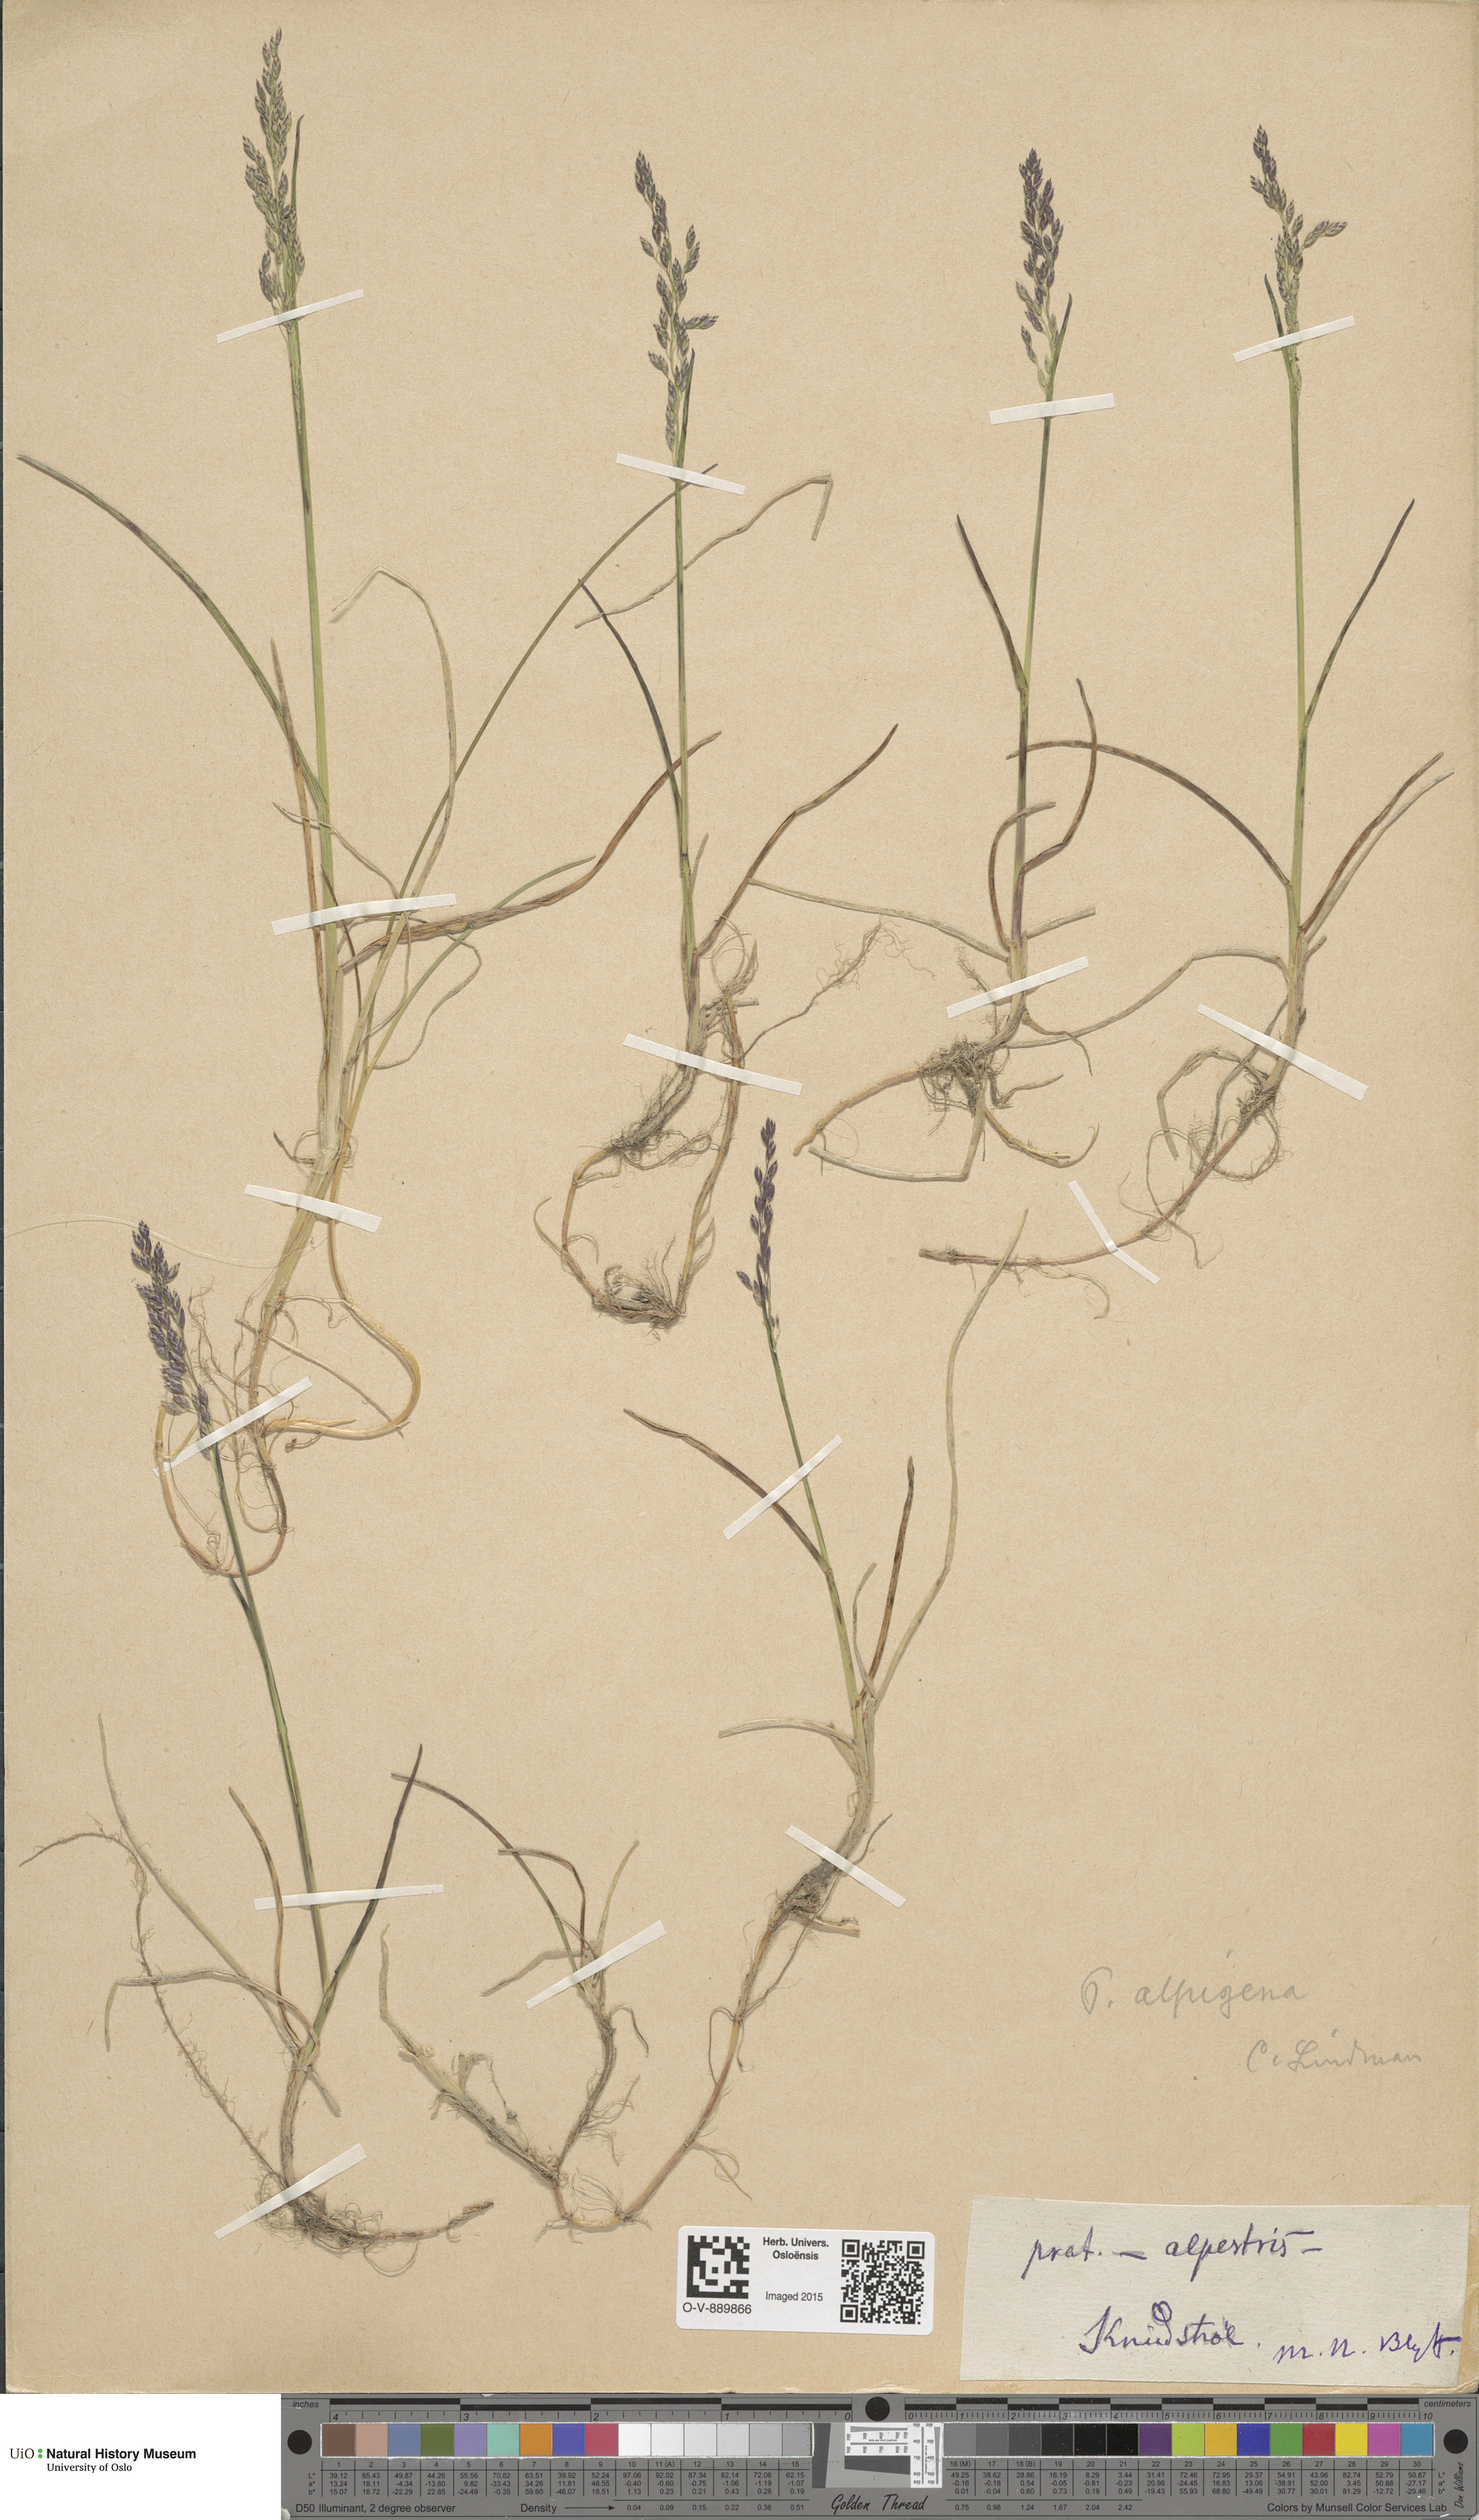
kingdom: Plantae
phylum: Tracheophyta
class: Liliopsida
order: Poales
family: Poaceae
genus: Poa
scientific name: Poa alpigena
